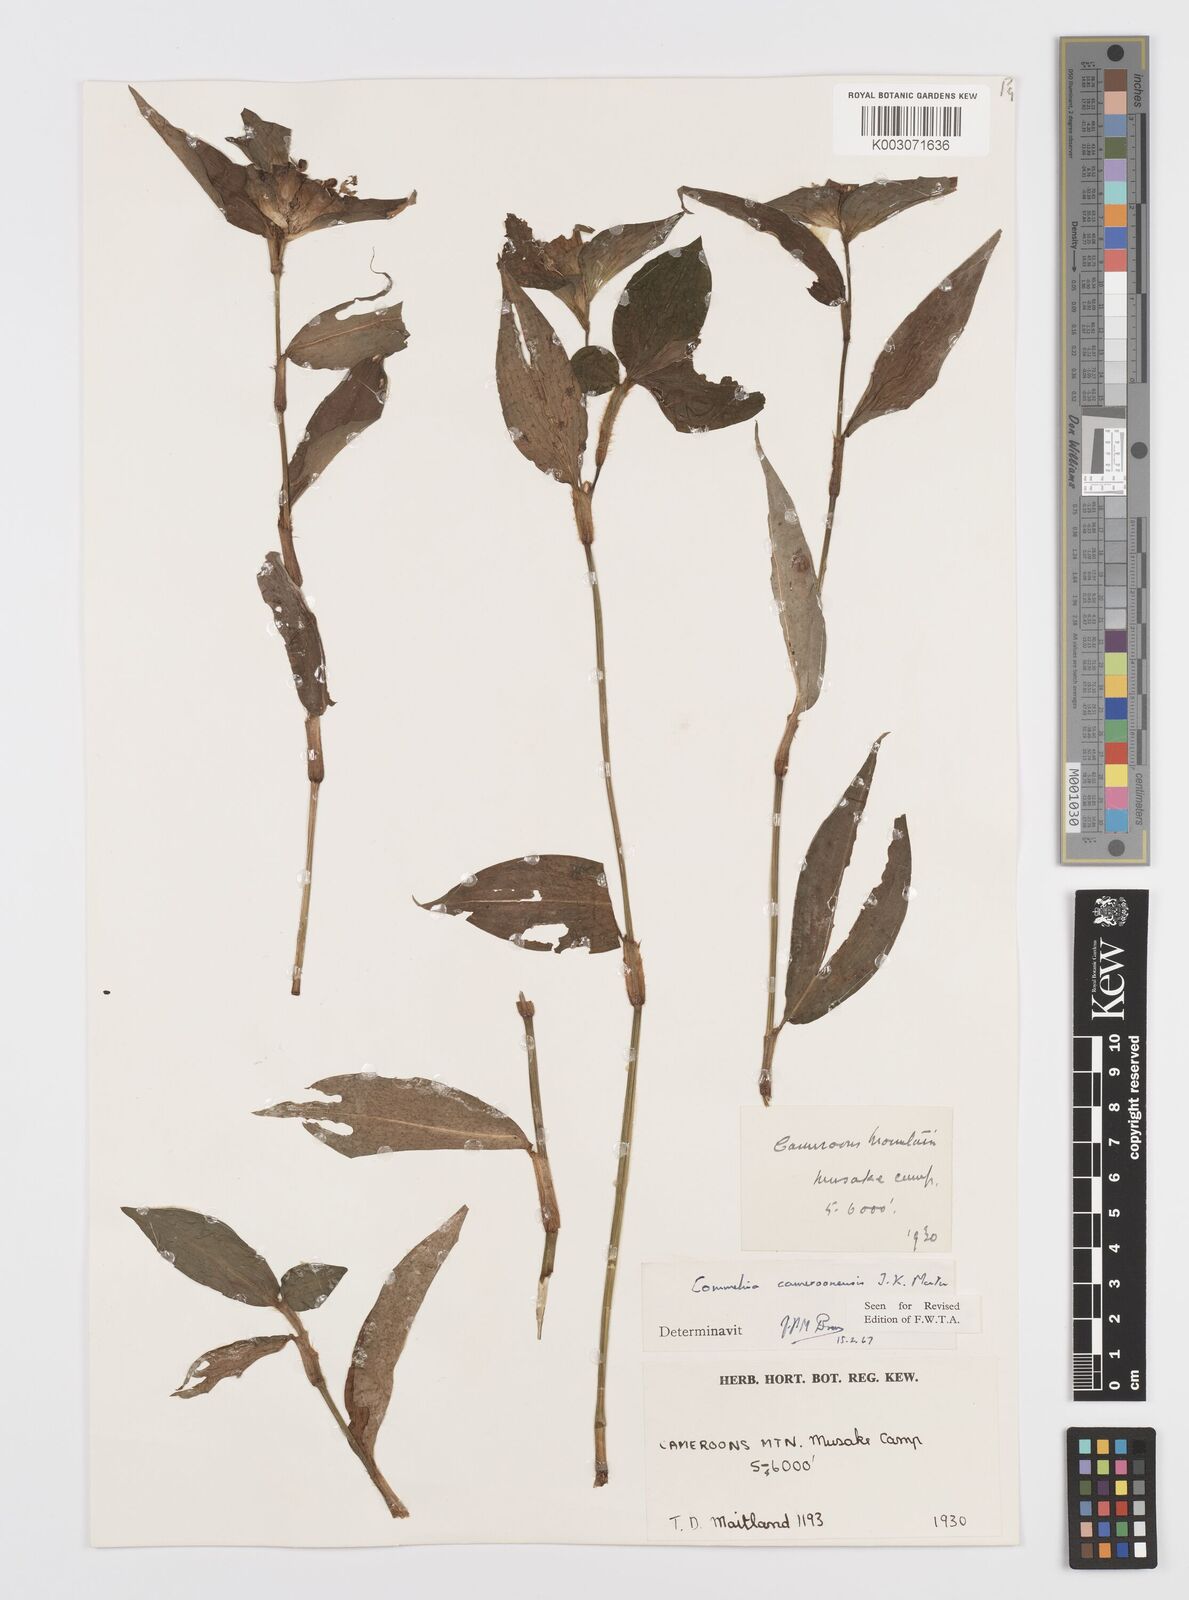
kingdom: Plantae
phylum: Tracheophyta
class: Liliopsida
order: Commelinales
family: Commelinaceae
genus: Commelina
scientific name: Commelina cameroonensis
